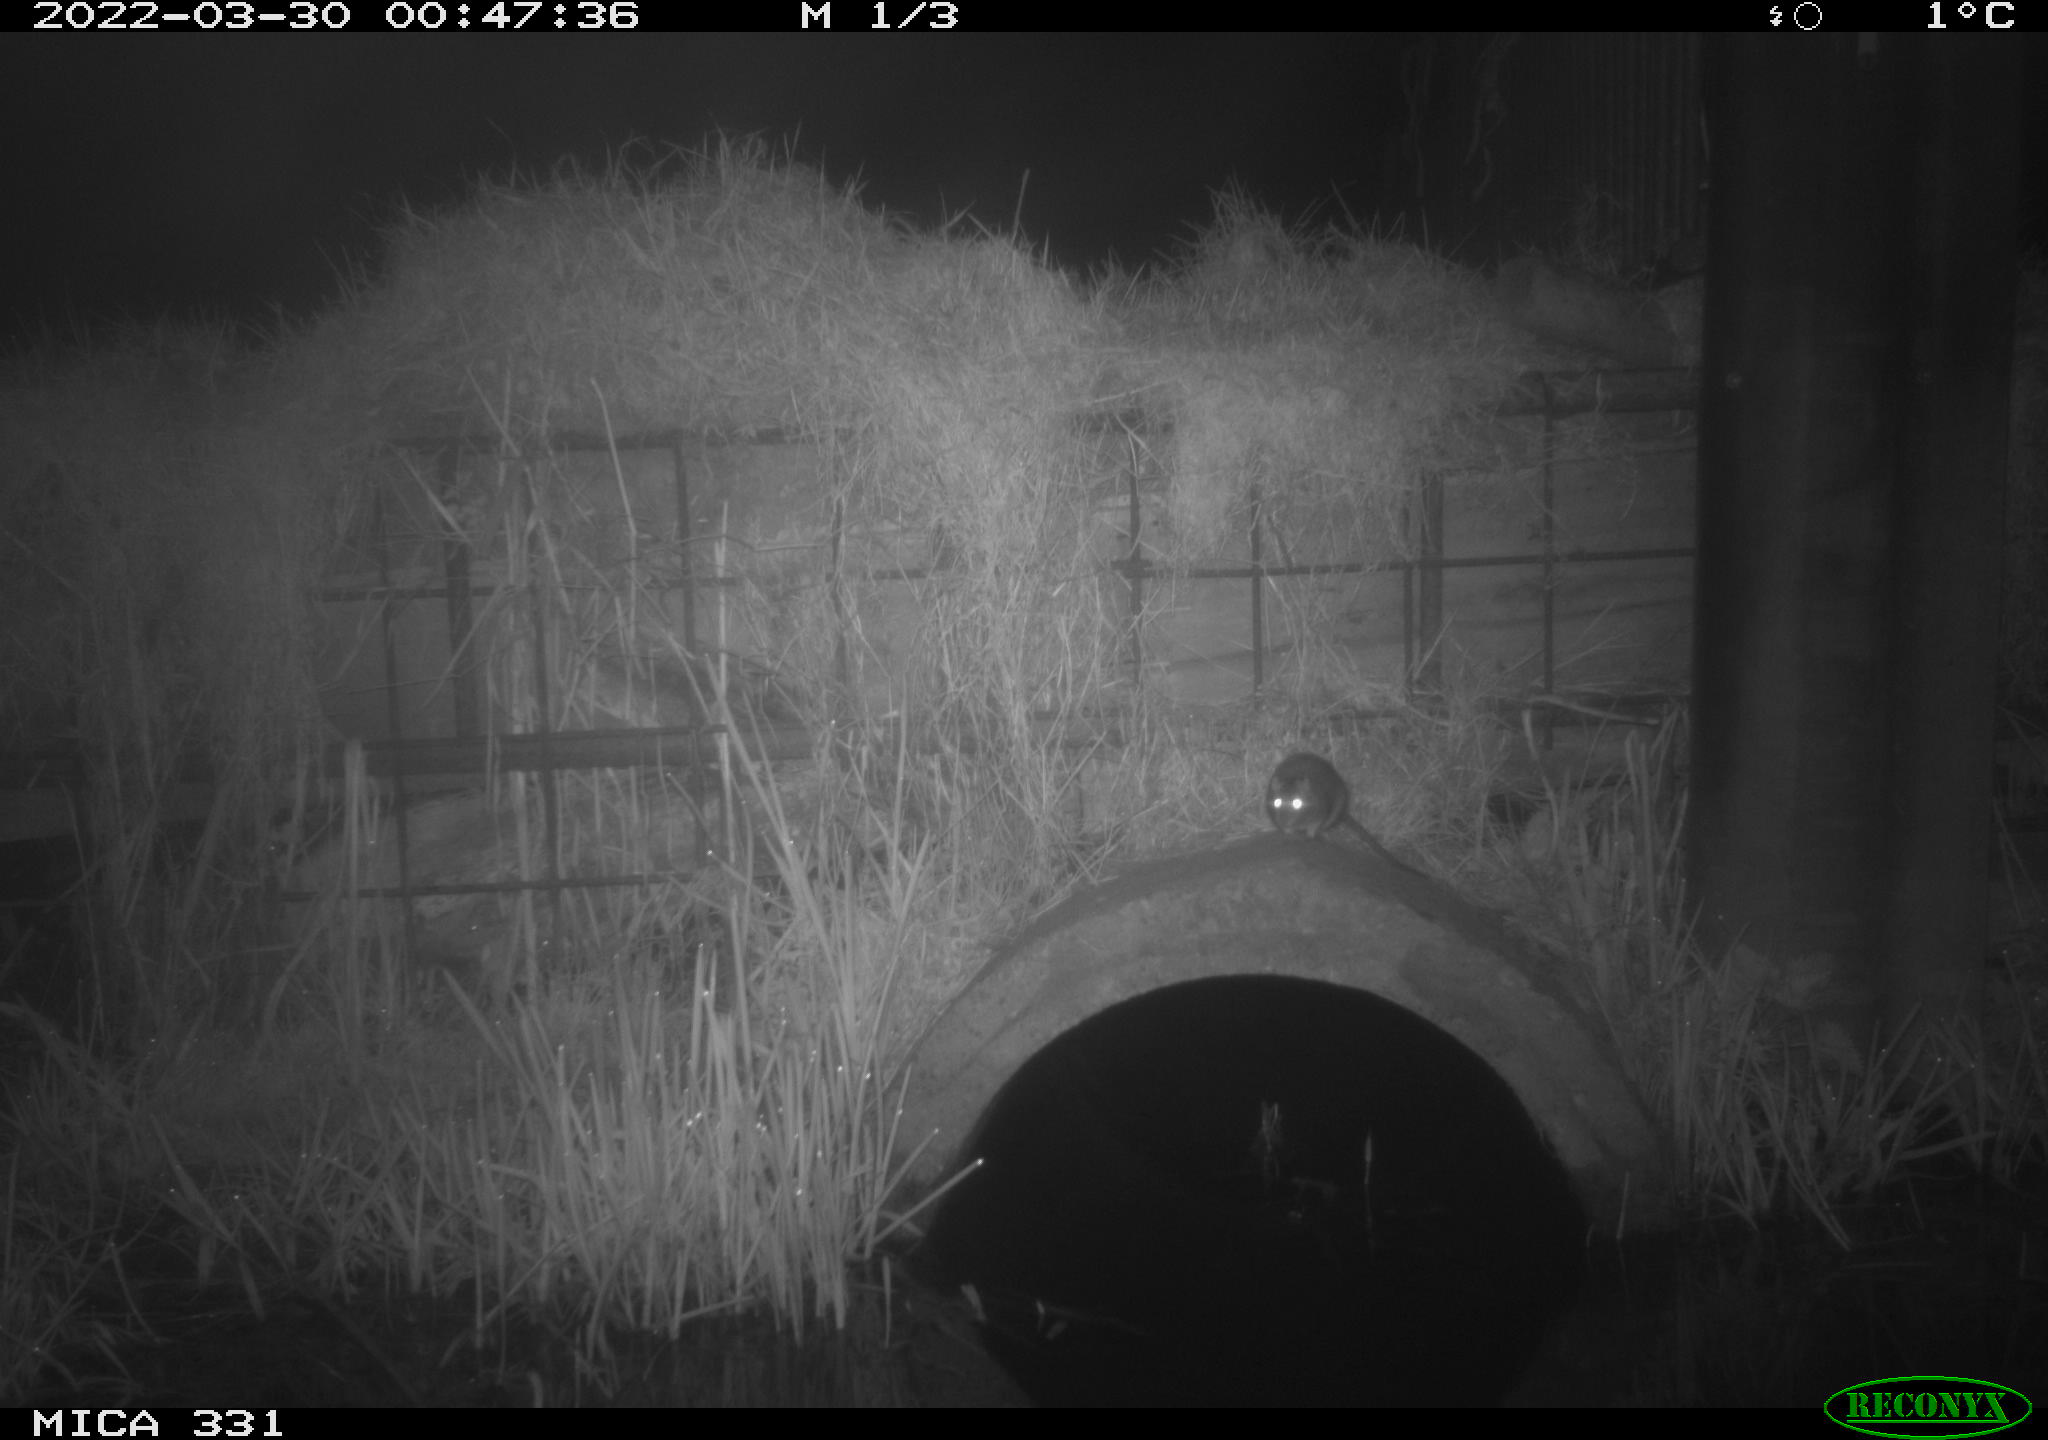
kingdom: Animalia
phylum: Chordata
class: Mammalia
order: Rodentia
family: Muridae
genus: Rattus
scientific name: Rattus norvegicus
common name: Brown rat
